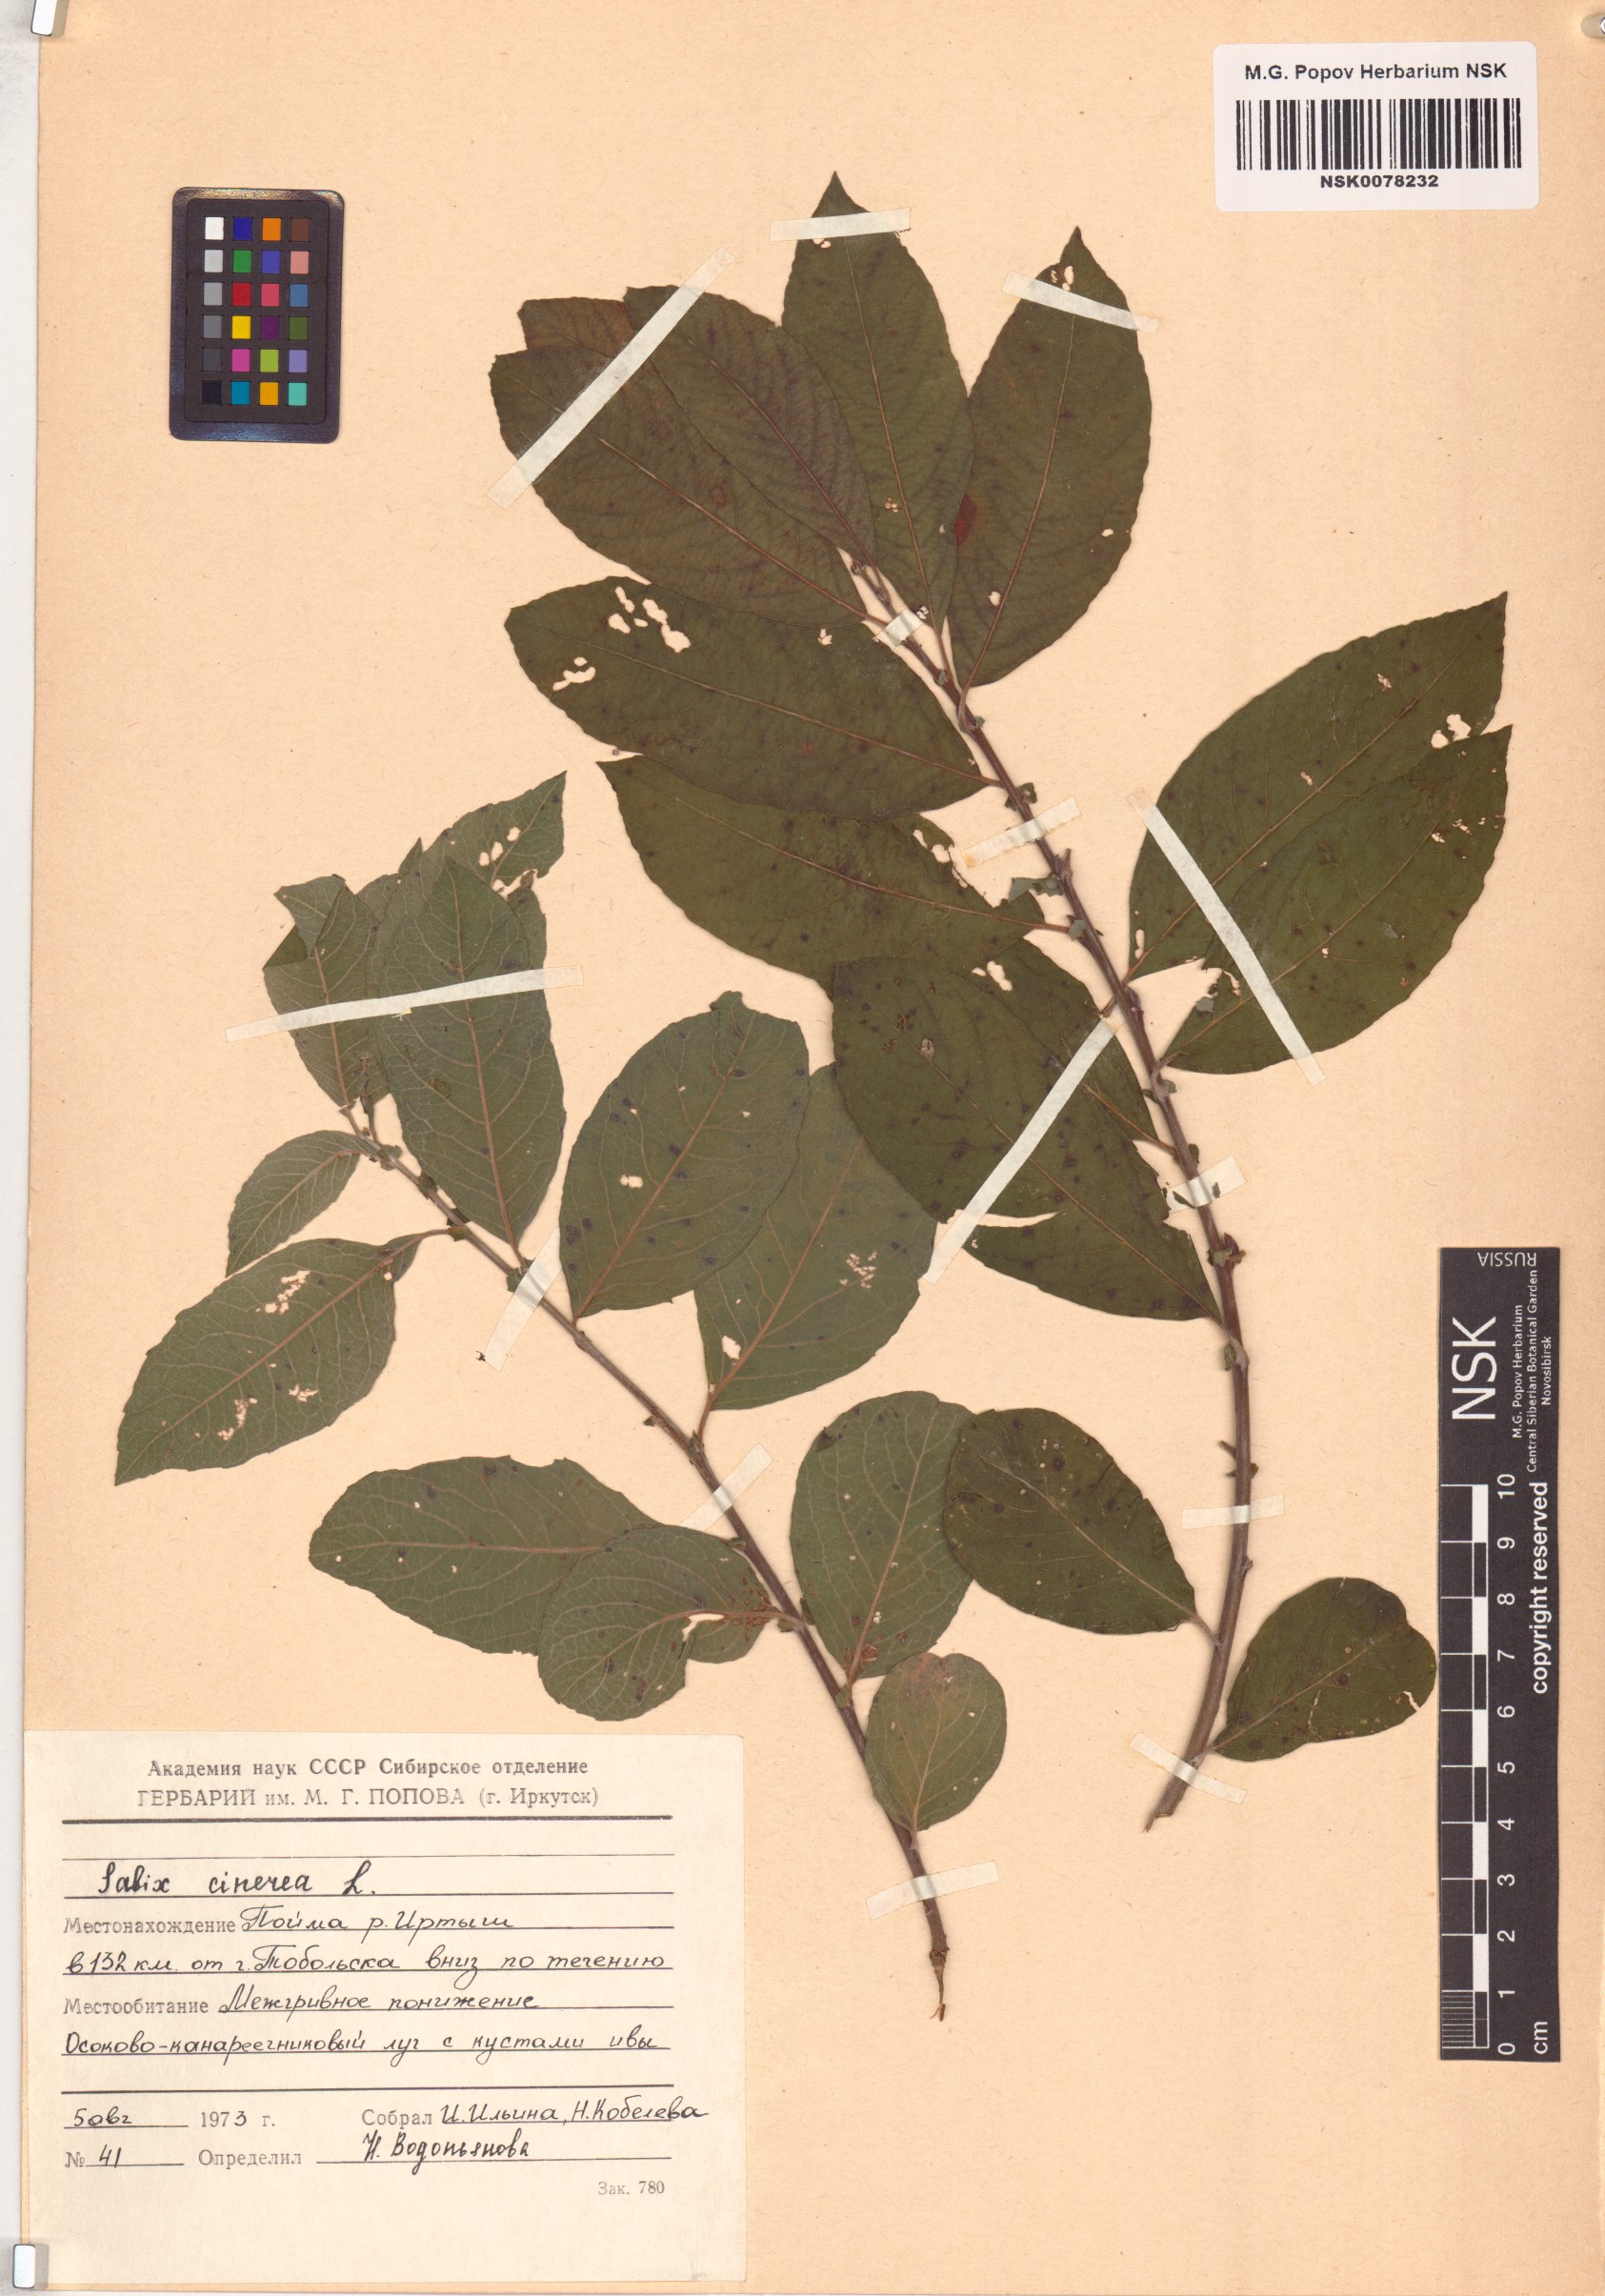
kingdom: Plantae
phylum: Tracheophyta
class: Magnoliopsida
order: Malpighiales
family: Salicaceae
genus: Salix
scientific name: Salix cinerea
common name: Common sallow
